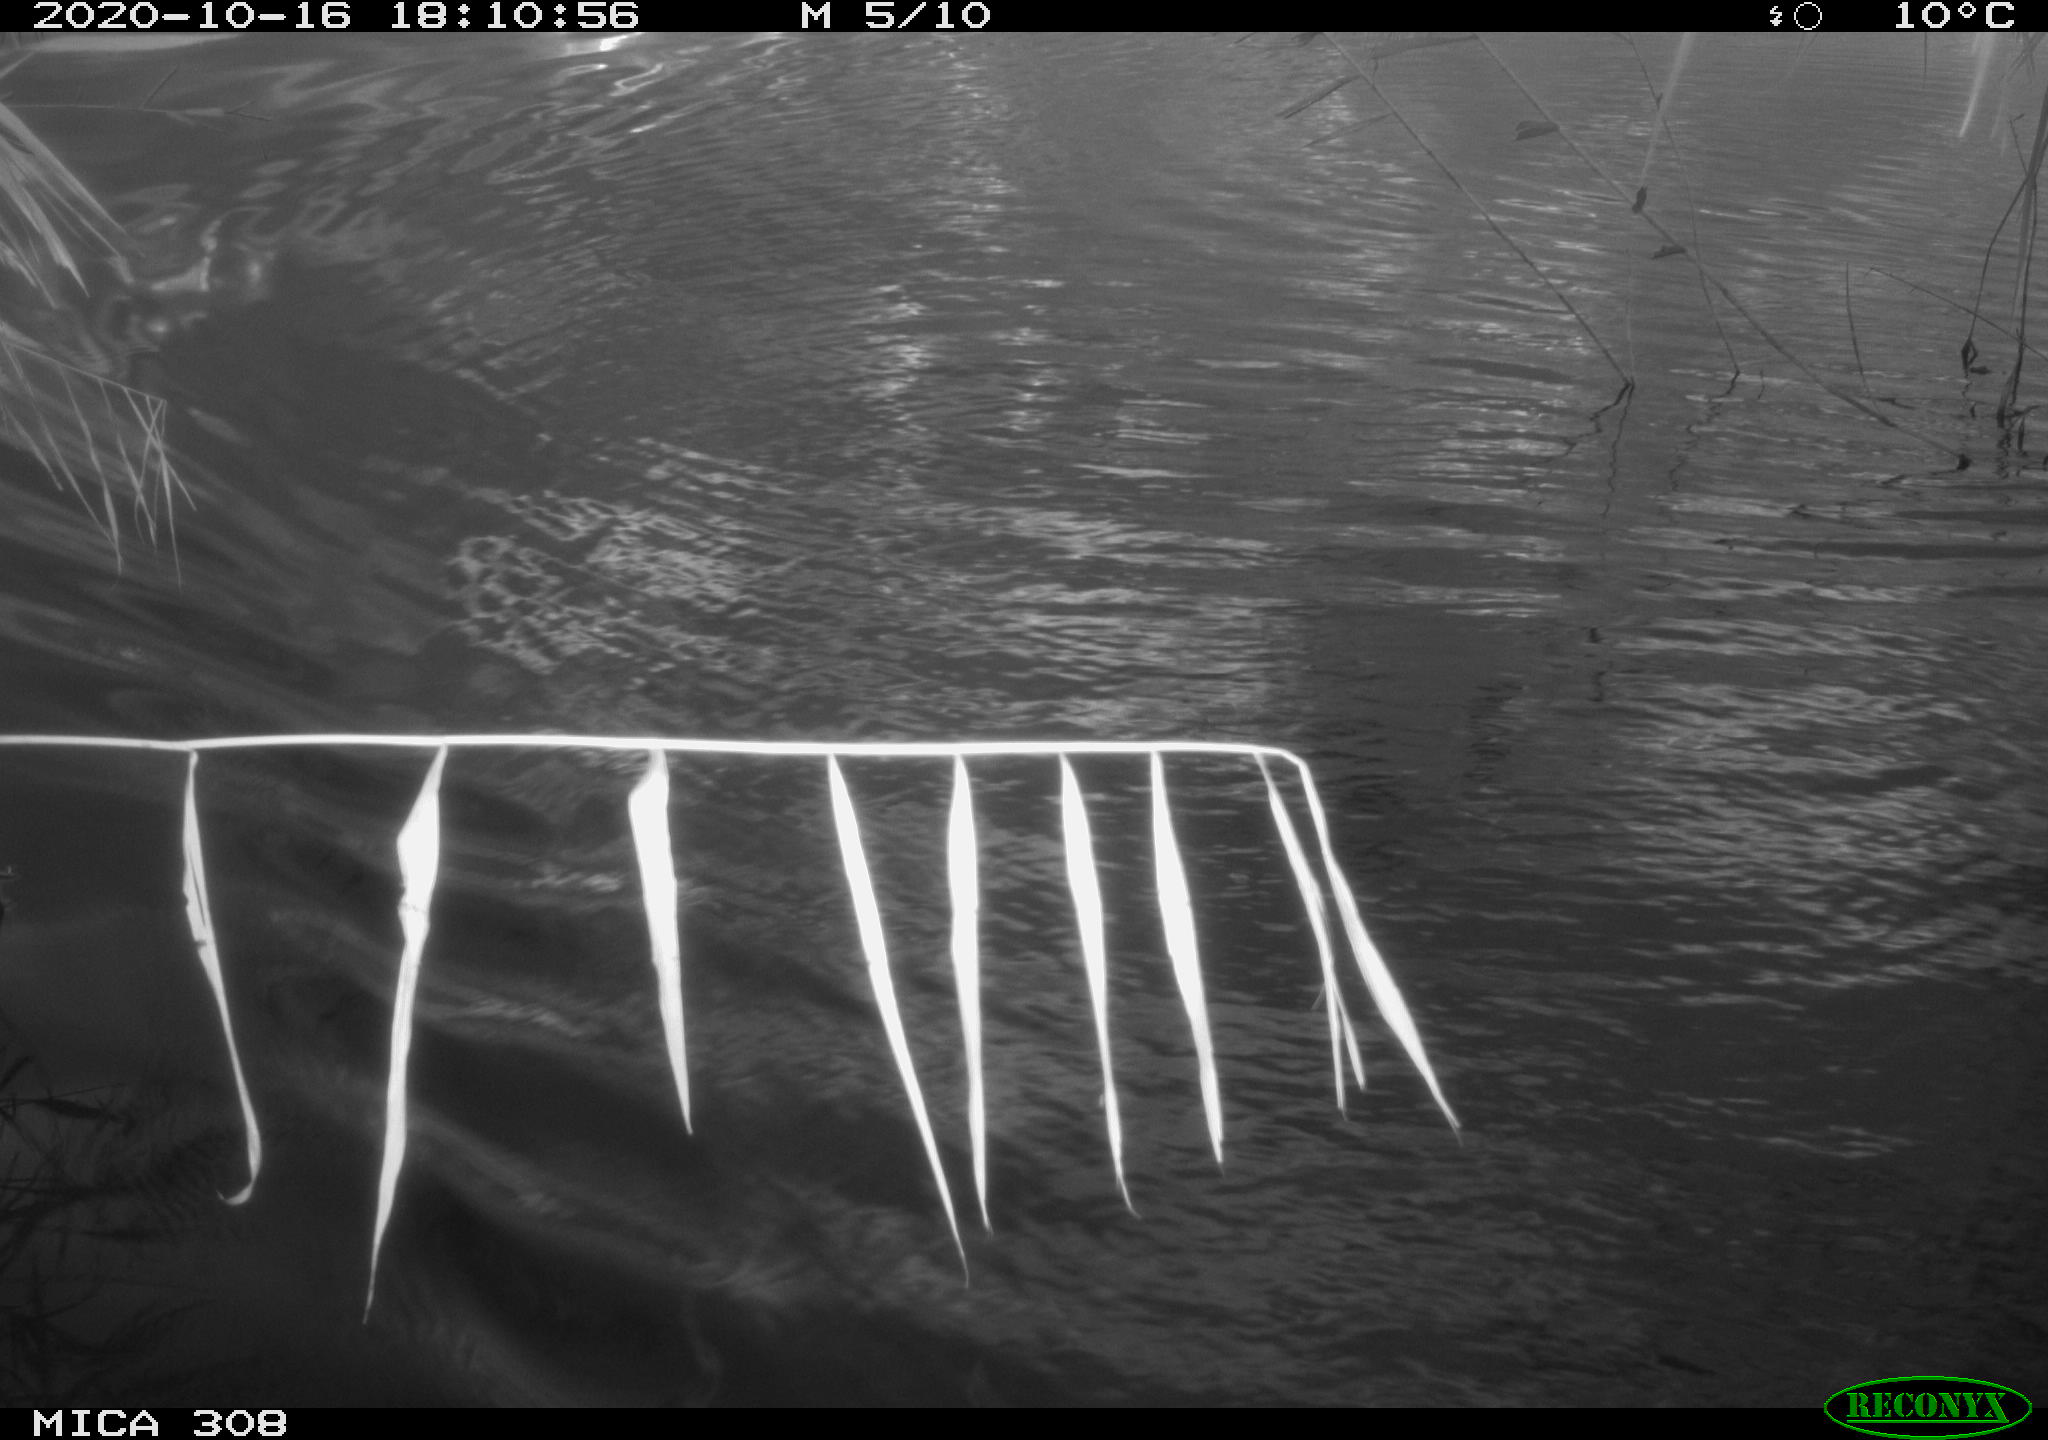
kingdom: Animalia
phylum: Chordata
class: Aves
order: Anseriformes
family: Anatidae
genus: Anas
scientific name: Anas platyrhynchos
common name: Mallard
